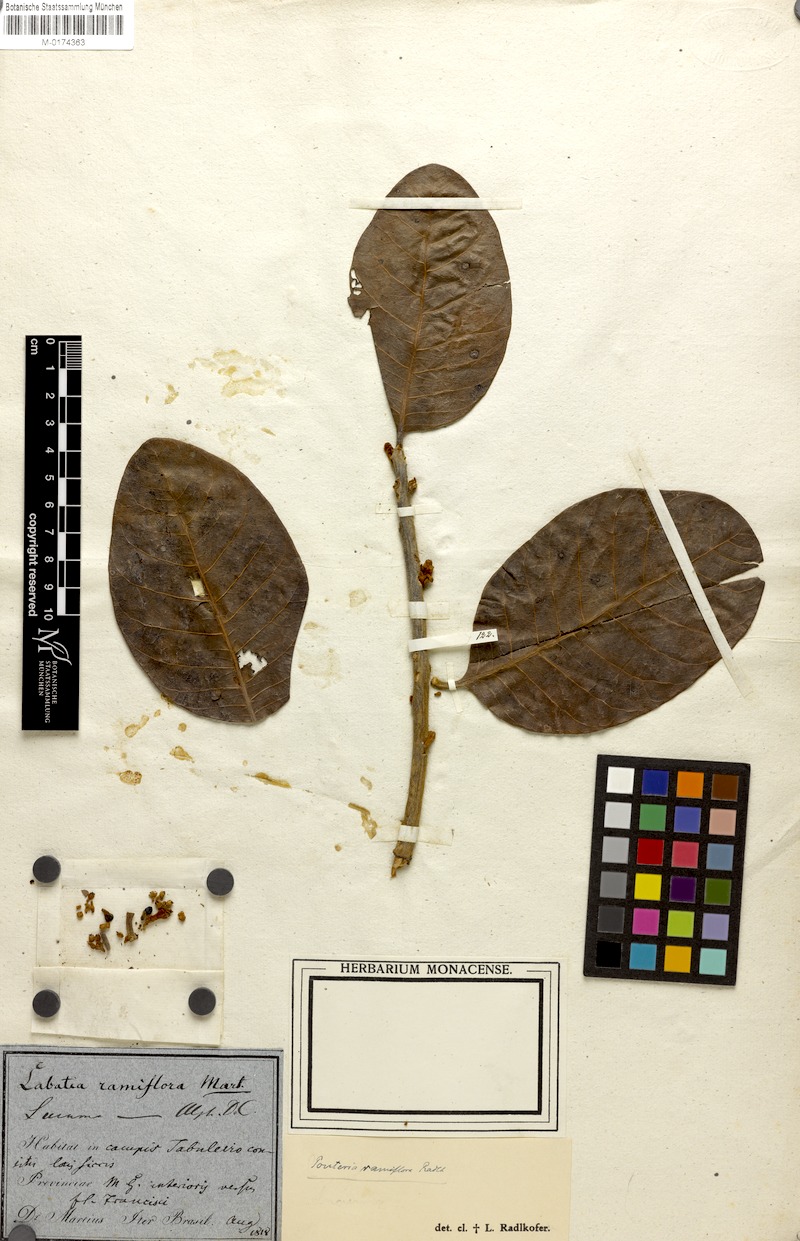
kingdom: Plantae
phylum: Tracheophyta
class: Magnoliopsida
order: Ericales
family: Sapotaceae
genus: Pouteria
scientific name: Pouteria ramiflora
